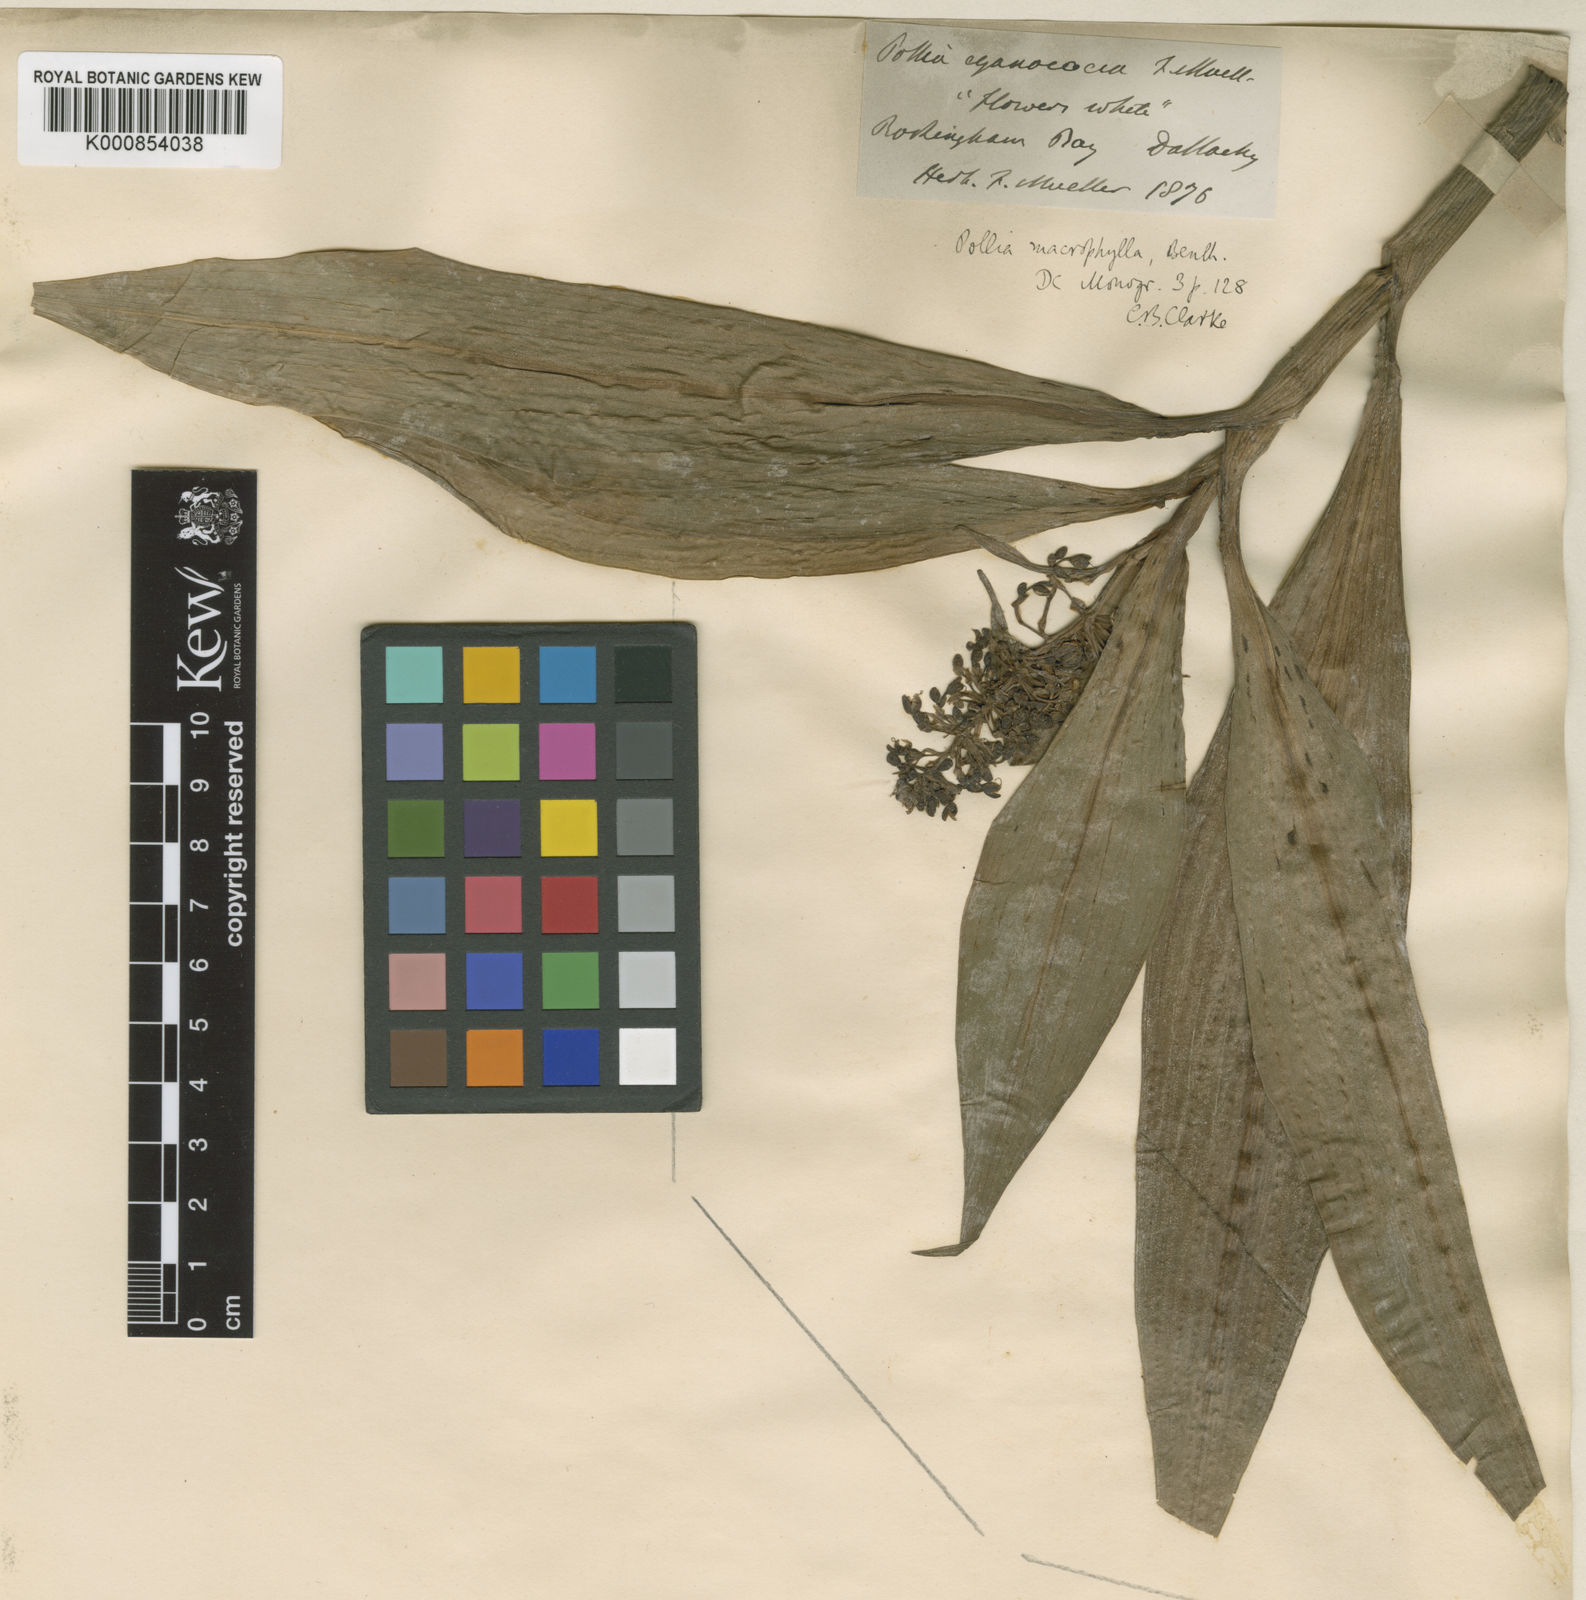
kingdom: Plantae
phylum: Tracheophyta
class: Liliopsida
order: Commelinales
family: Commelinaceae
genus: Pollia
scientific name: Pollia macrophylla
